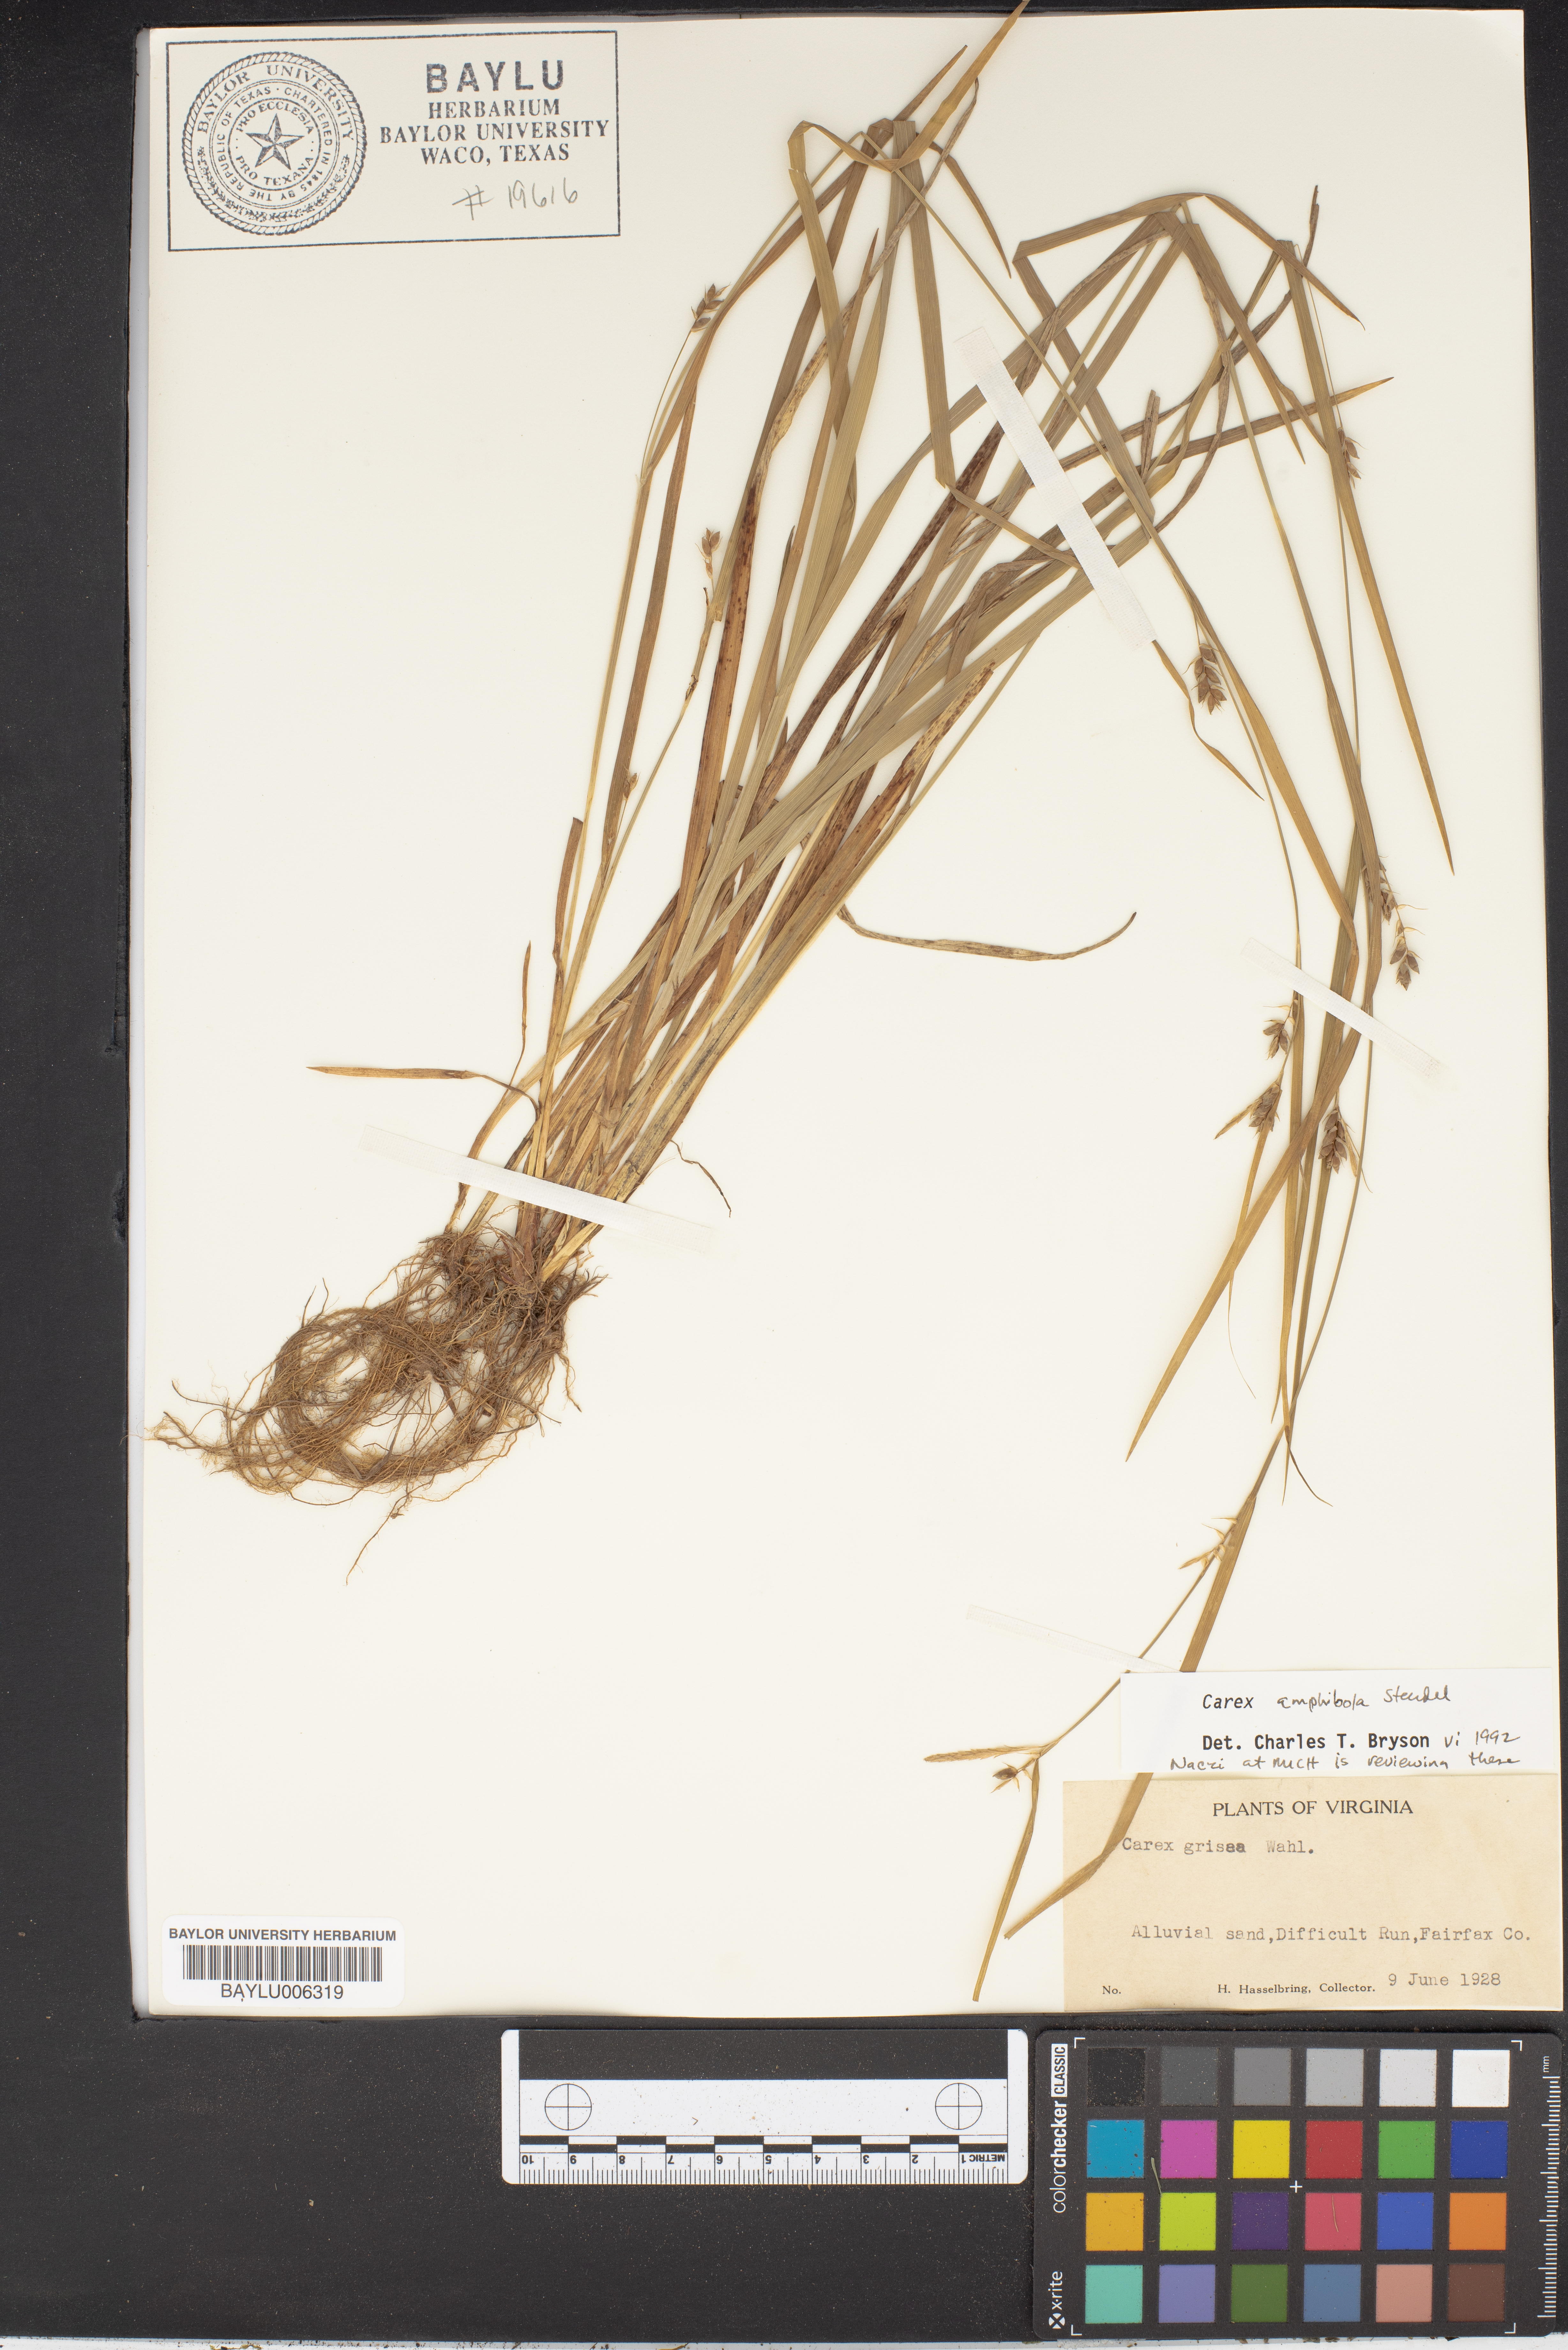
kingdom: Plantae
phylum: Tracheophyta
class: Liliopsida
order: Poales
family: Cyperaceae
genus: Carex
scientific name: Carex grisea
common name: Eastern narrow-leaved sedge
